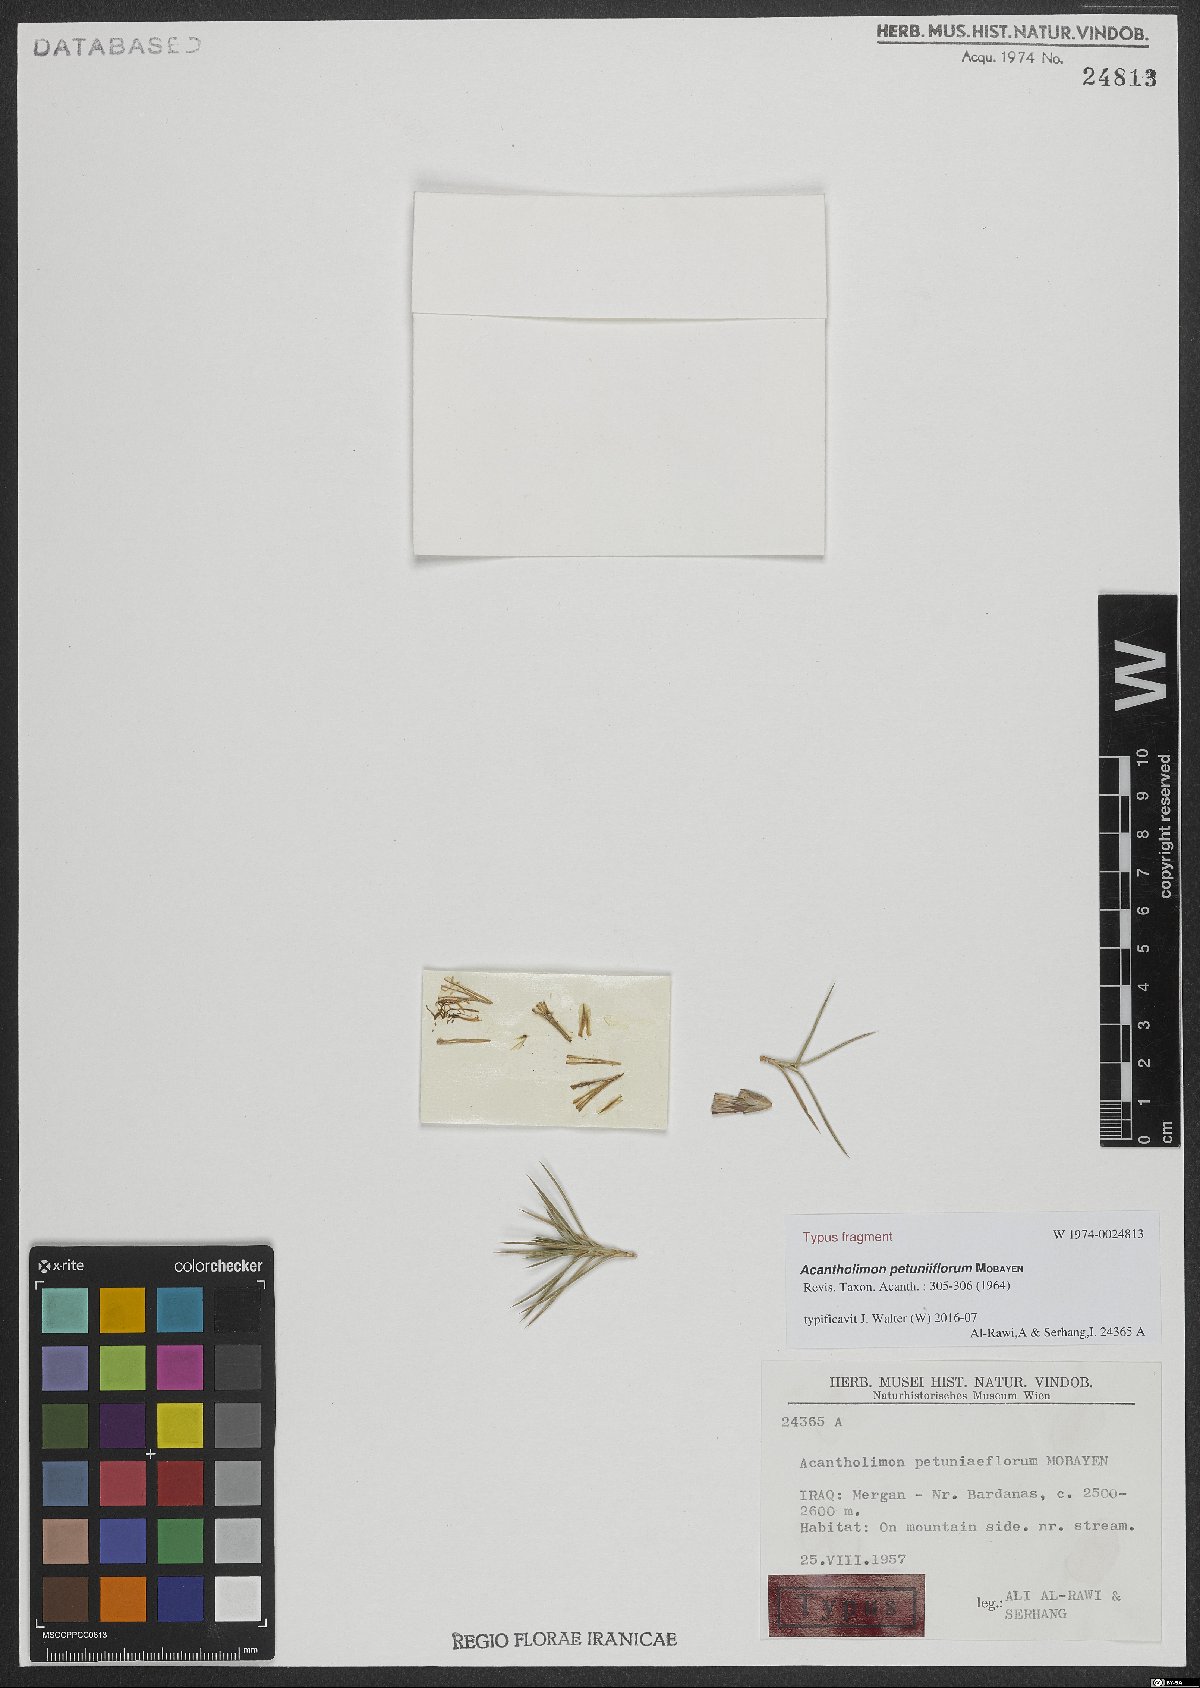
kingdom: Plantae
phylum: Tracheophyta
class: Magnoliopsida
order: Caryophyllales
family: Plumbaginaceae
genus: Acantholimon
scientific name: Acantholimon petuniflorum
